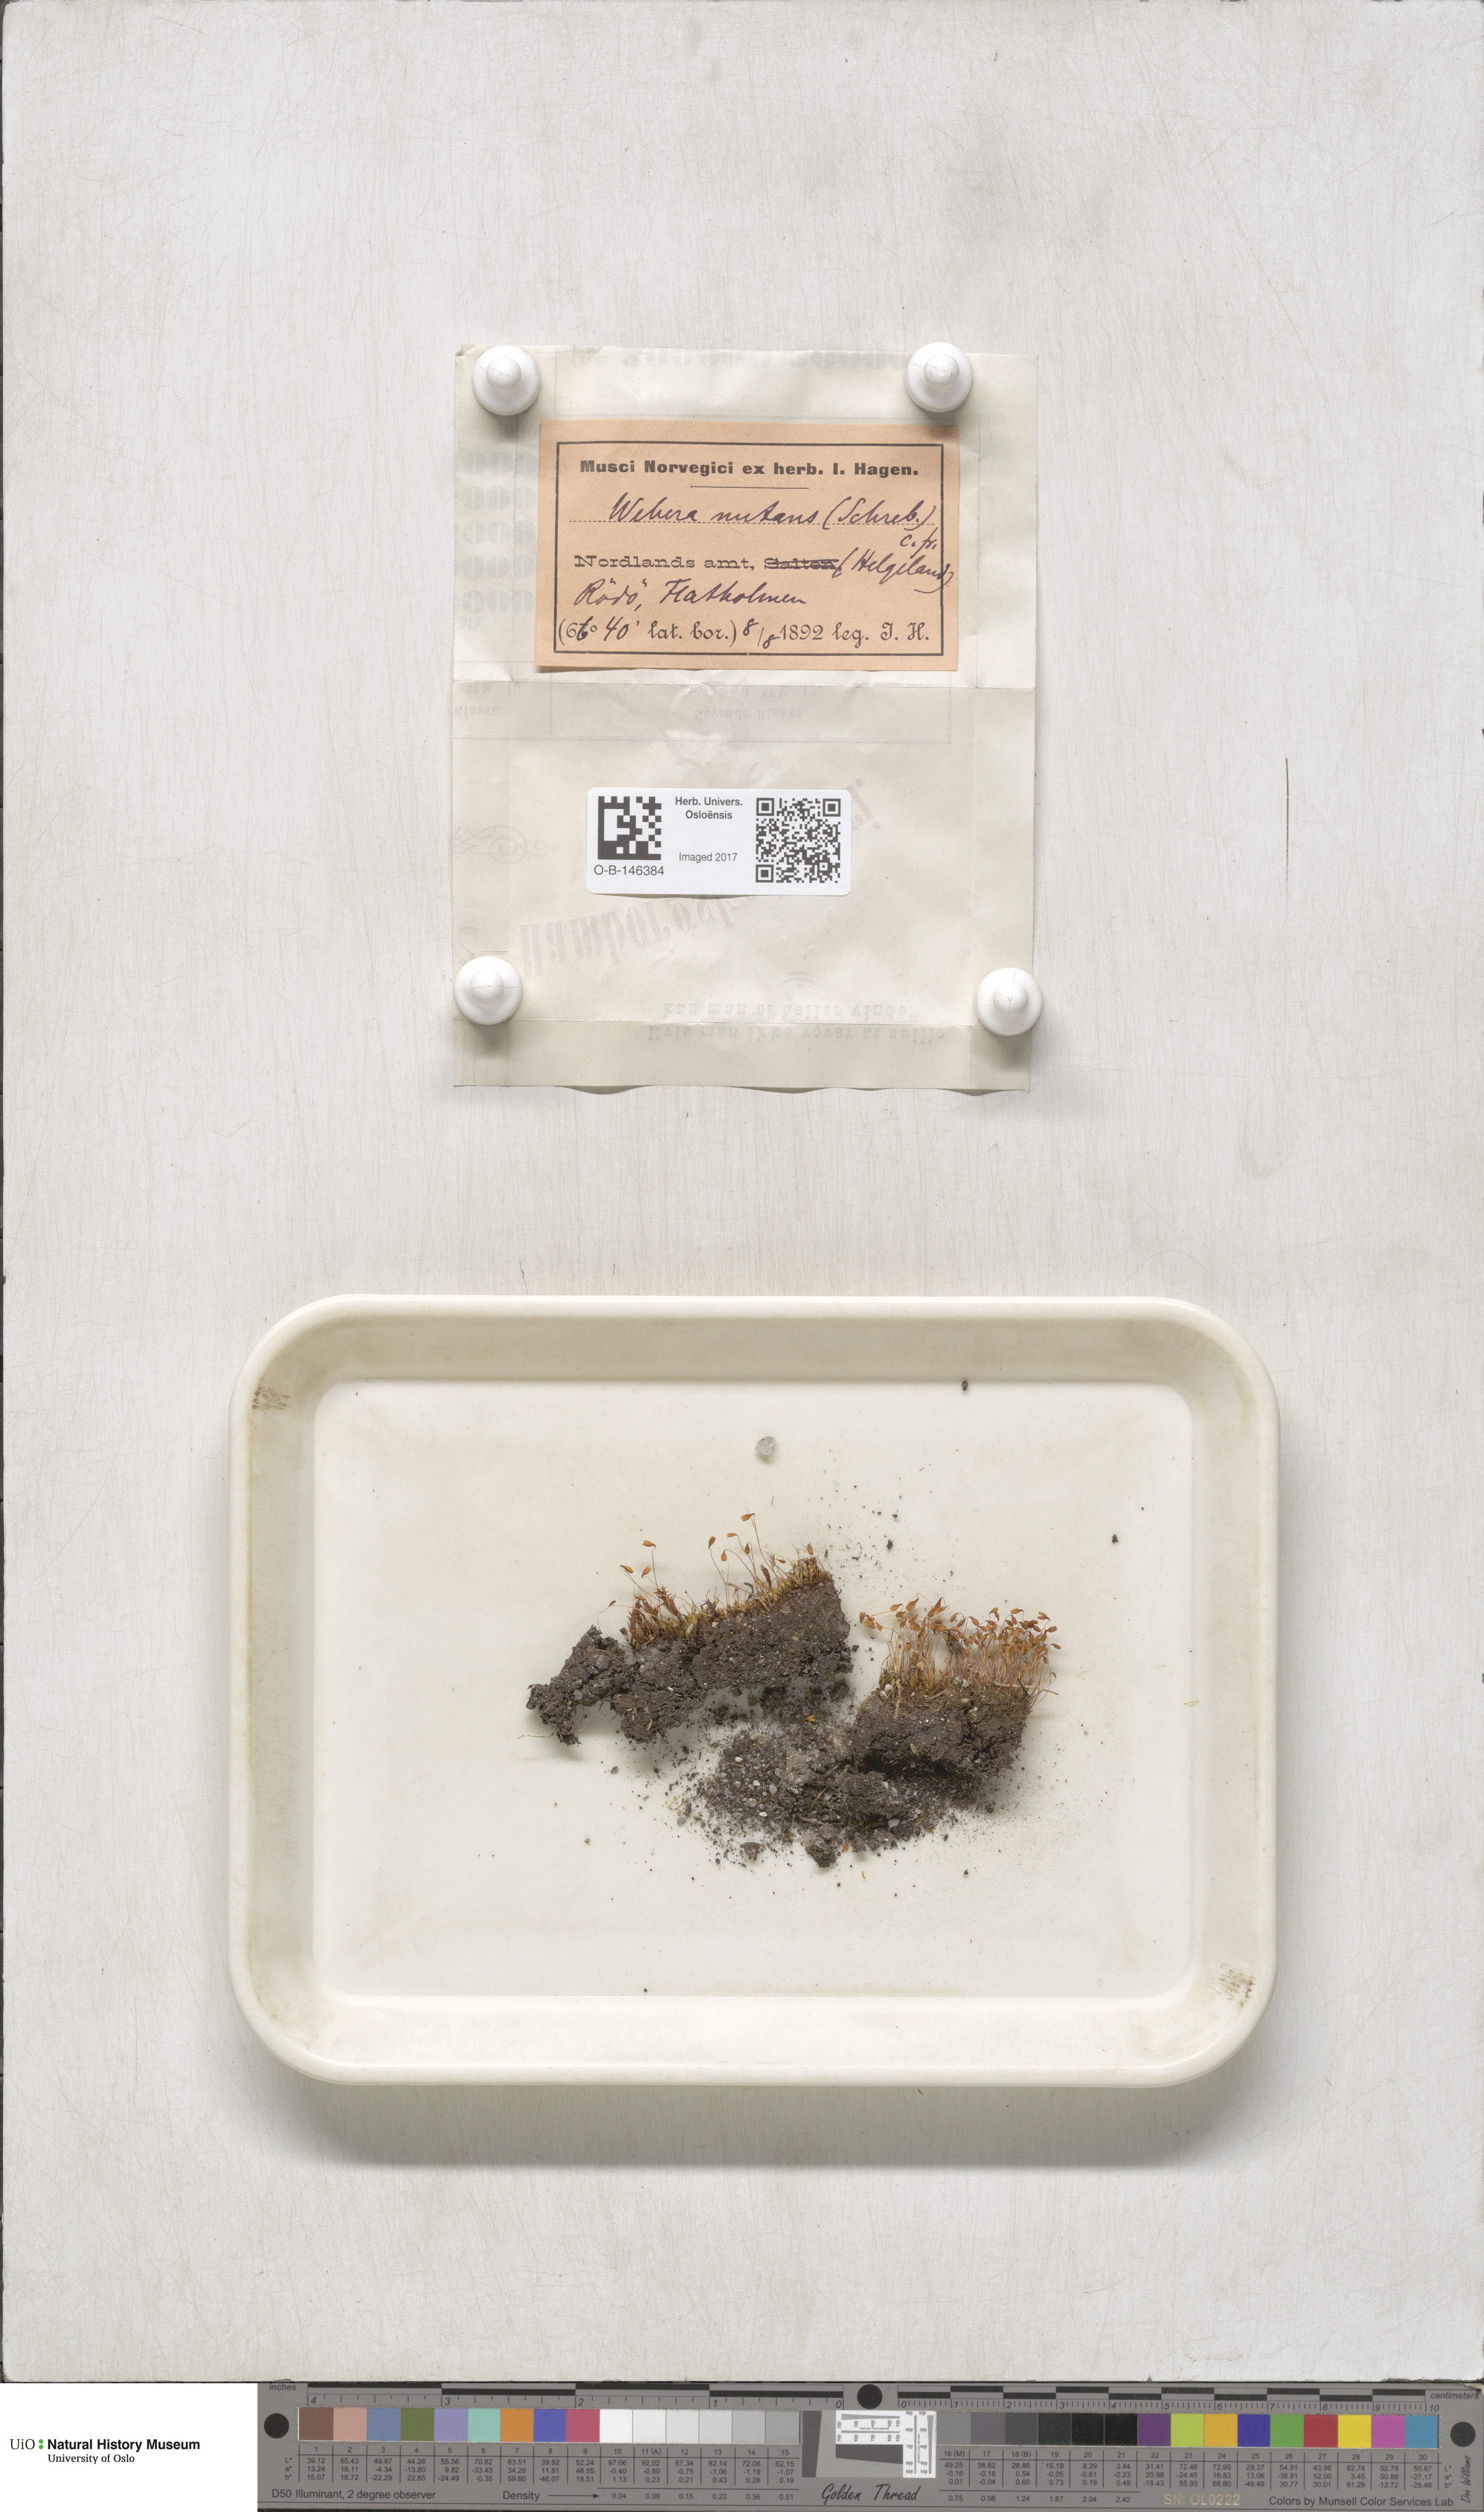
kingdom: Plantae
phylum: Bryophyta
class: Bryopsida
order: Bryales
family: Mniaceae
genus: Pohlia
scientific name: Pohlia nutans
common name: Nodding thread-moss
